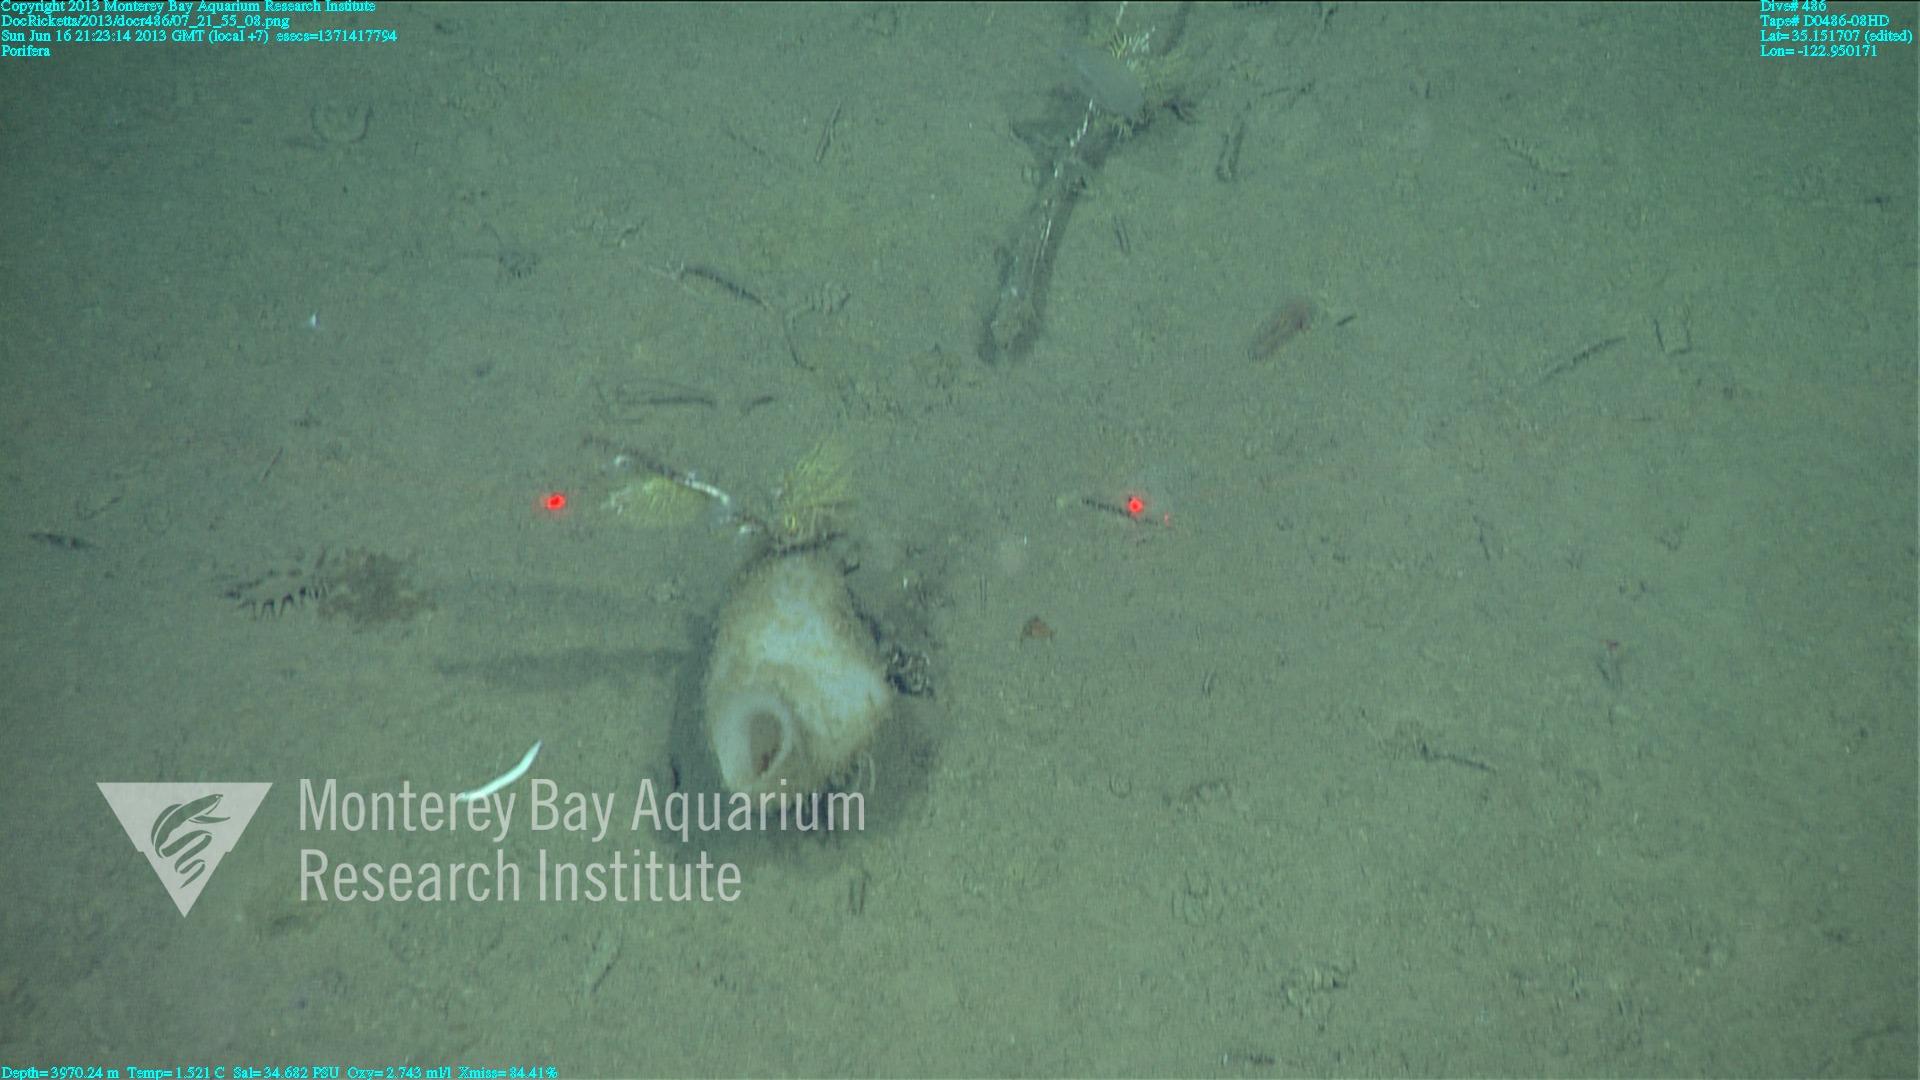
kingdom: Animalia
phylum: Porifera
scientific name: Porifera
